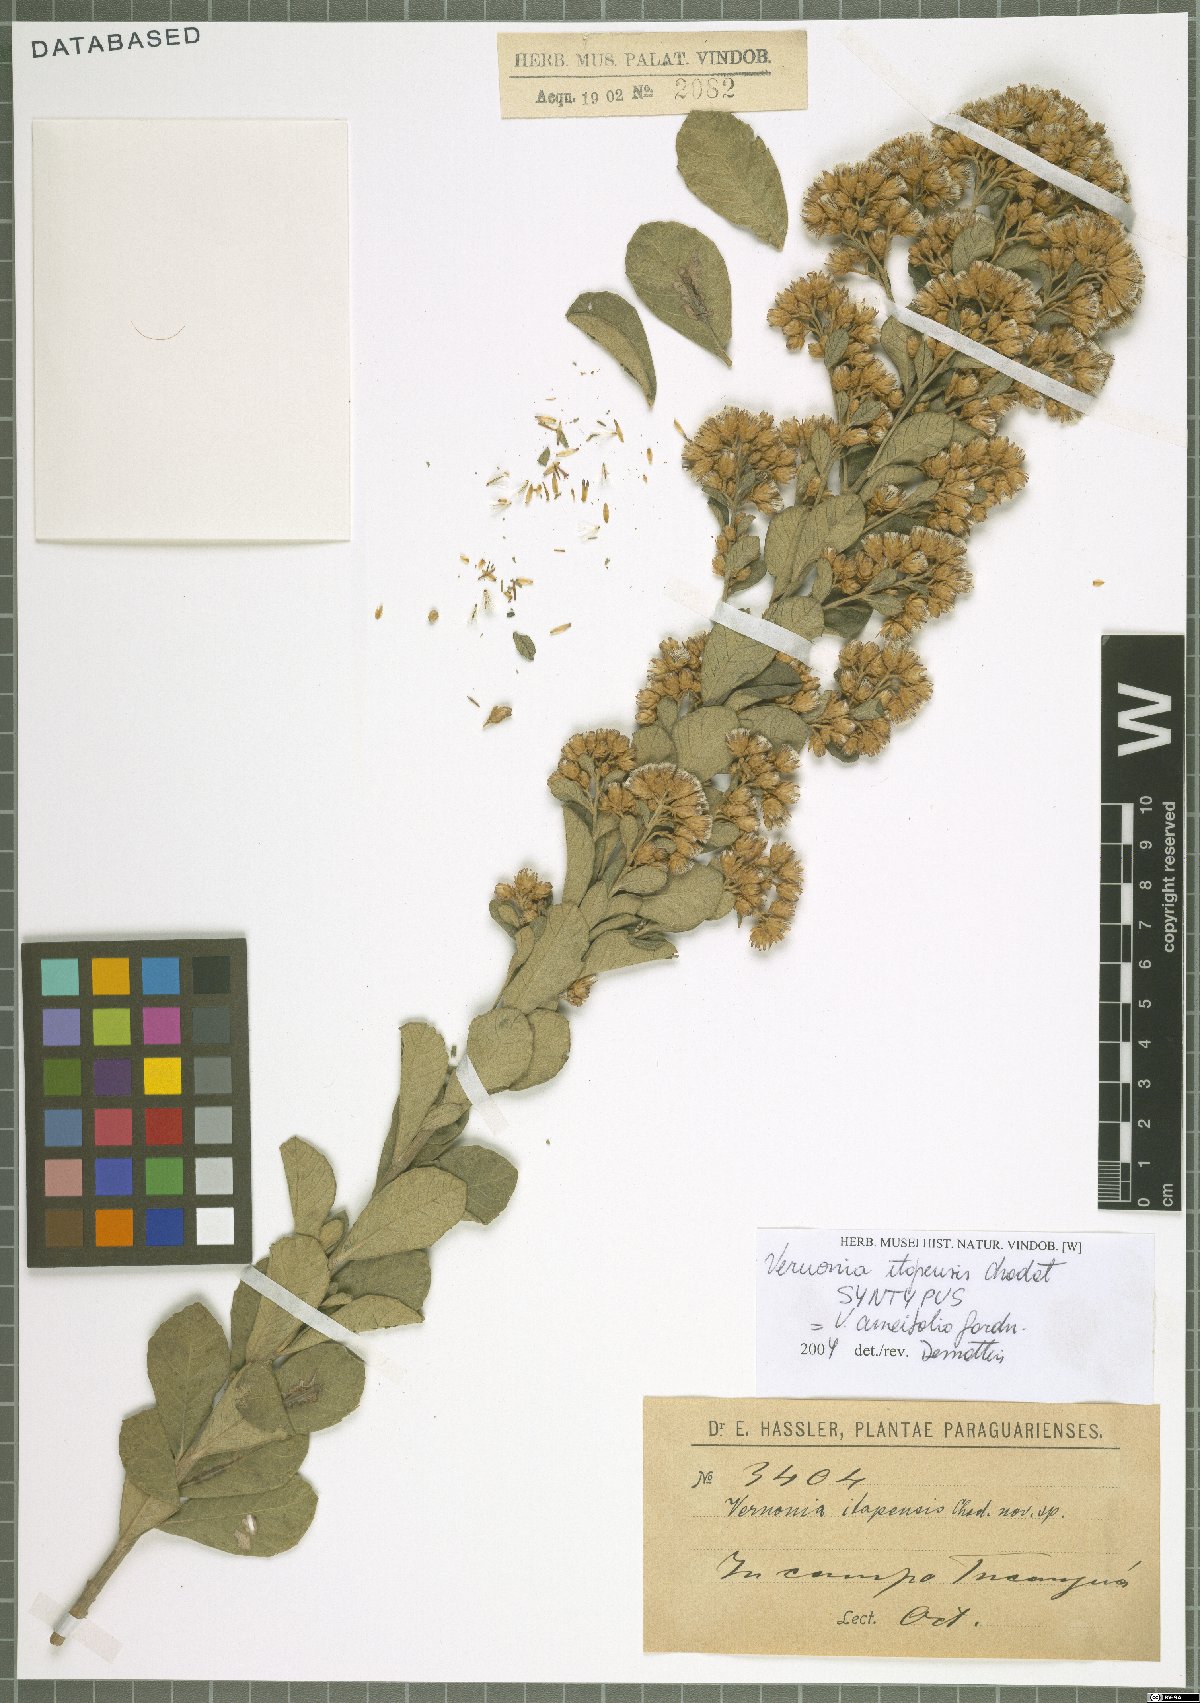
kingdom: Plantae
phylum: Tracheophyta
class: Magnoliopsida
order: Asterales
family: Asteraceae
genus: Vernonanthura
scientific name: Vernonanthura cuneifolia
